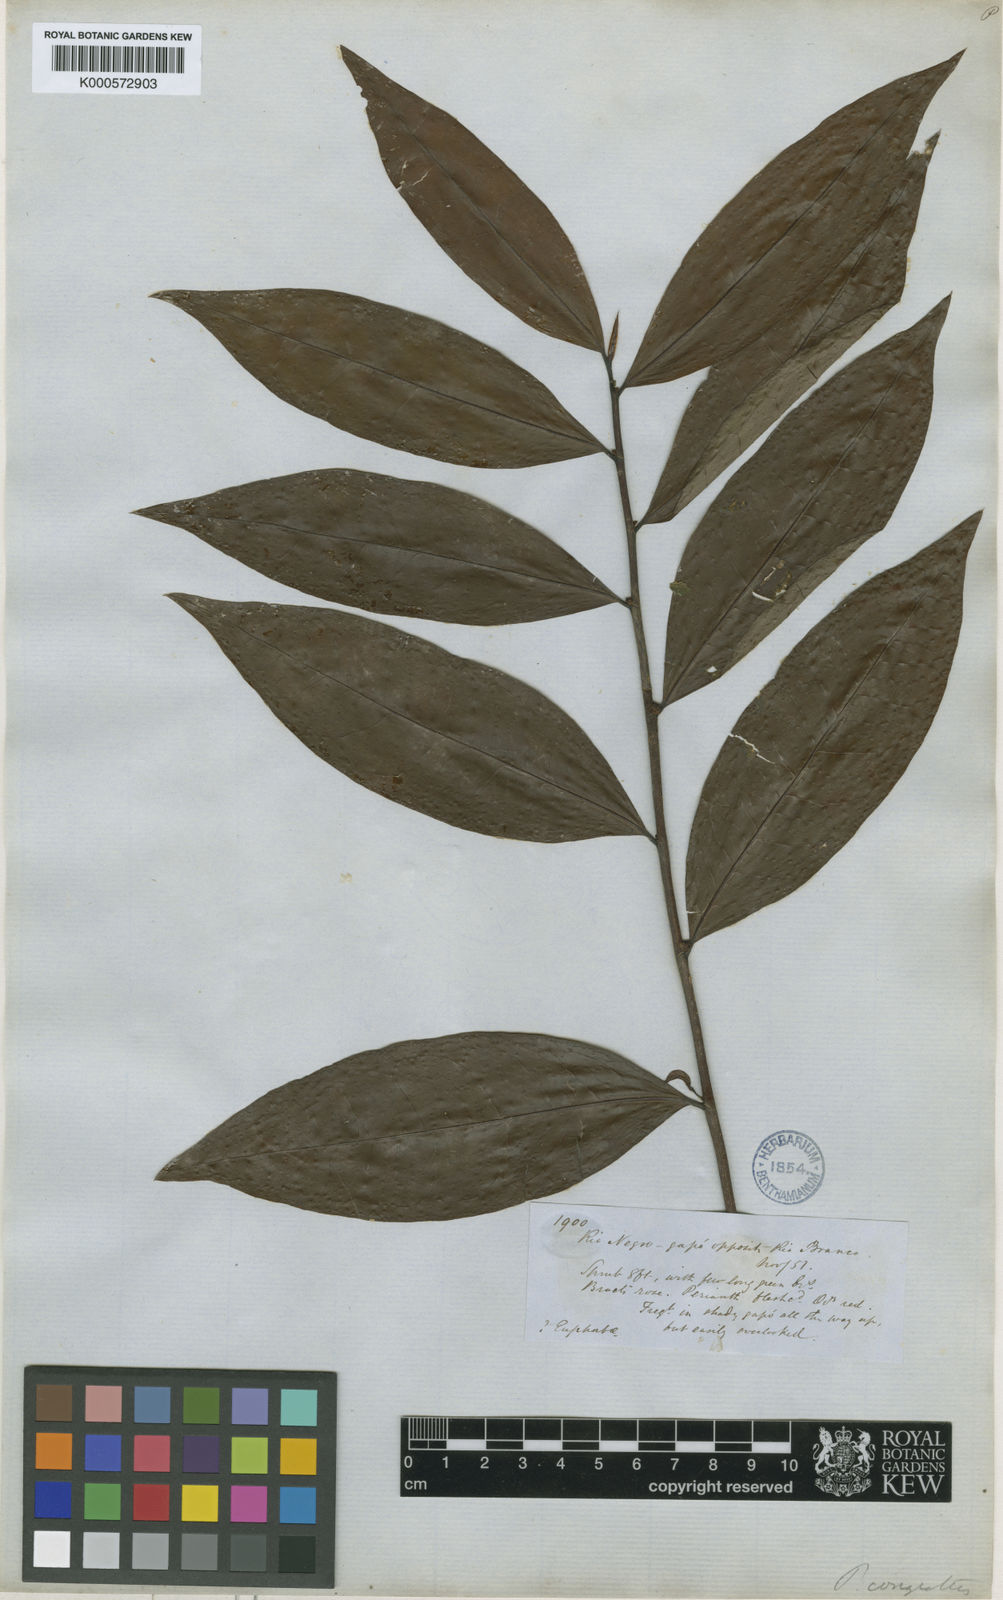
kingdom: Plantae
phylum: Tracheophyta
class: Magnoliopsida
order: Malpighiales
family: Phyllanthaceae
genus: Jablonskia
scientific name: Jablonskia congesta
